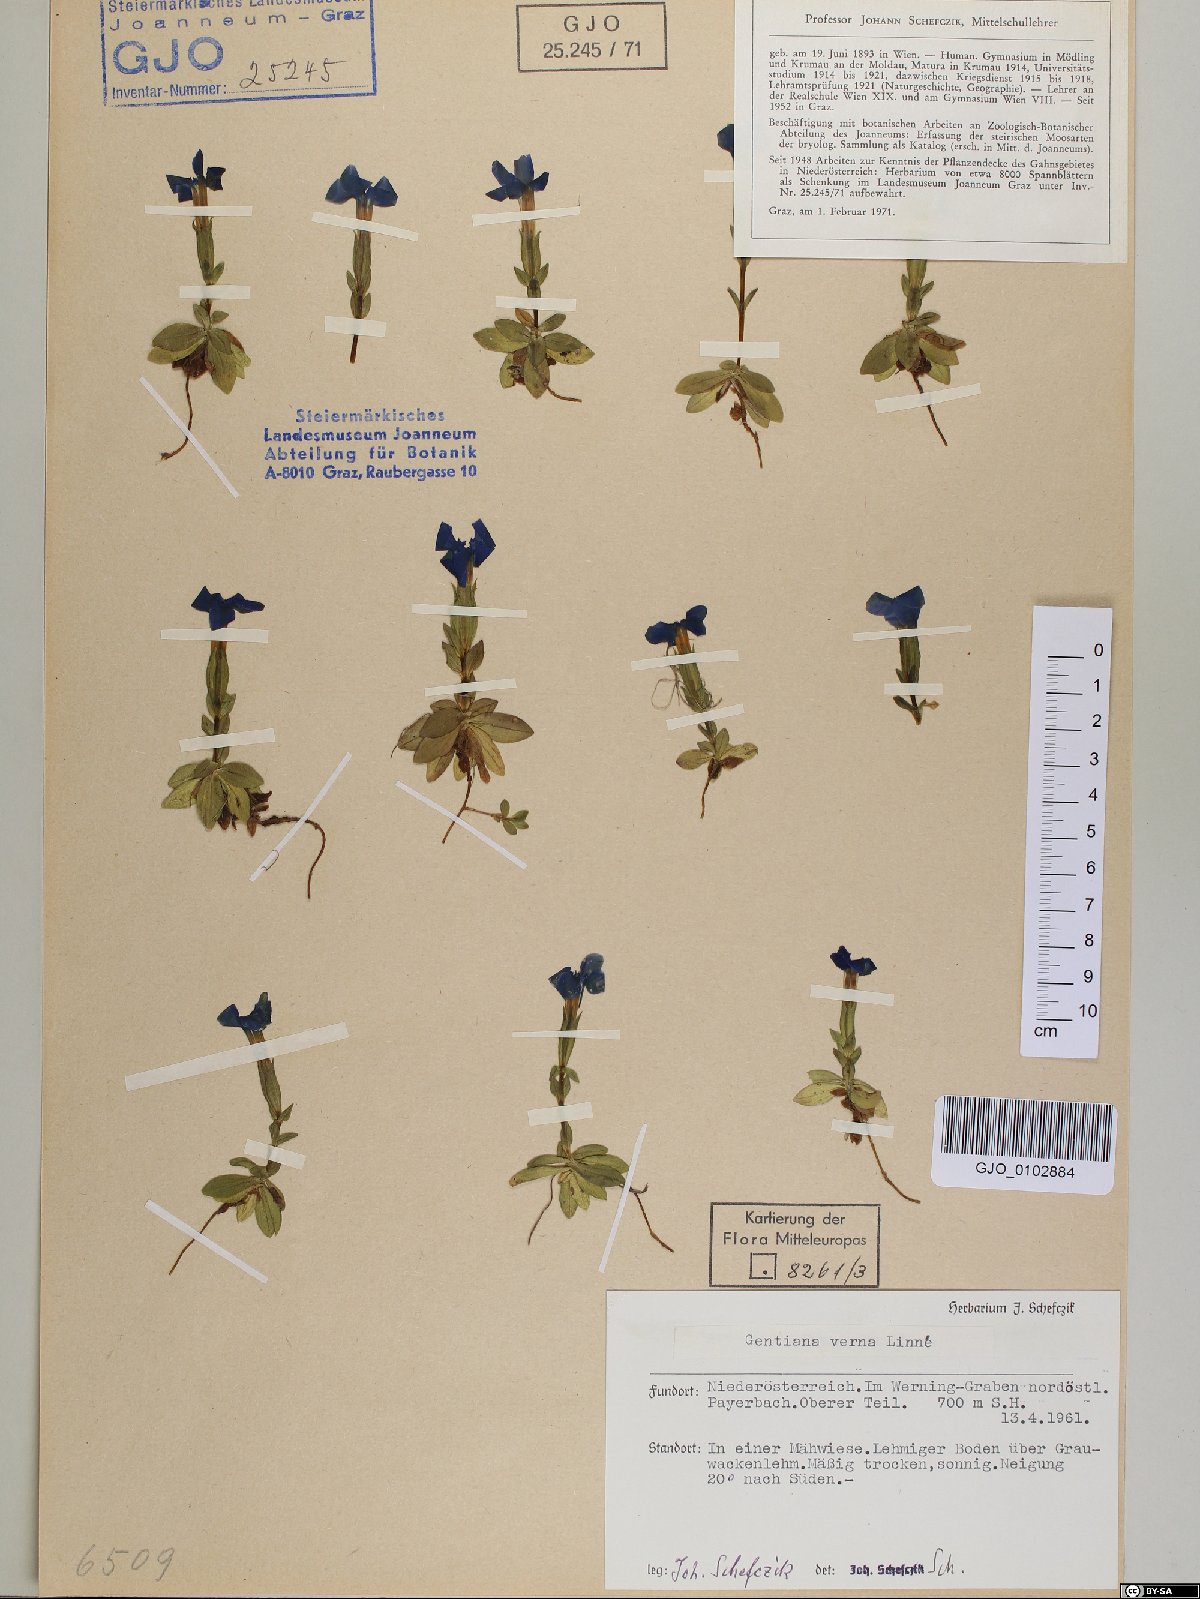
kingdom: Plantae
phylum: Tracheophyta
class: Magnoliopsida
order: Gentianales
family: Gentianaceae
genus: Gentiana
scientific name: Gentiana verna
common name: Spring gentian
